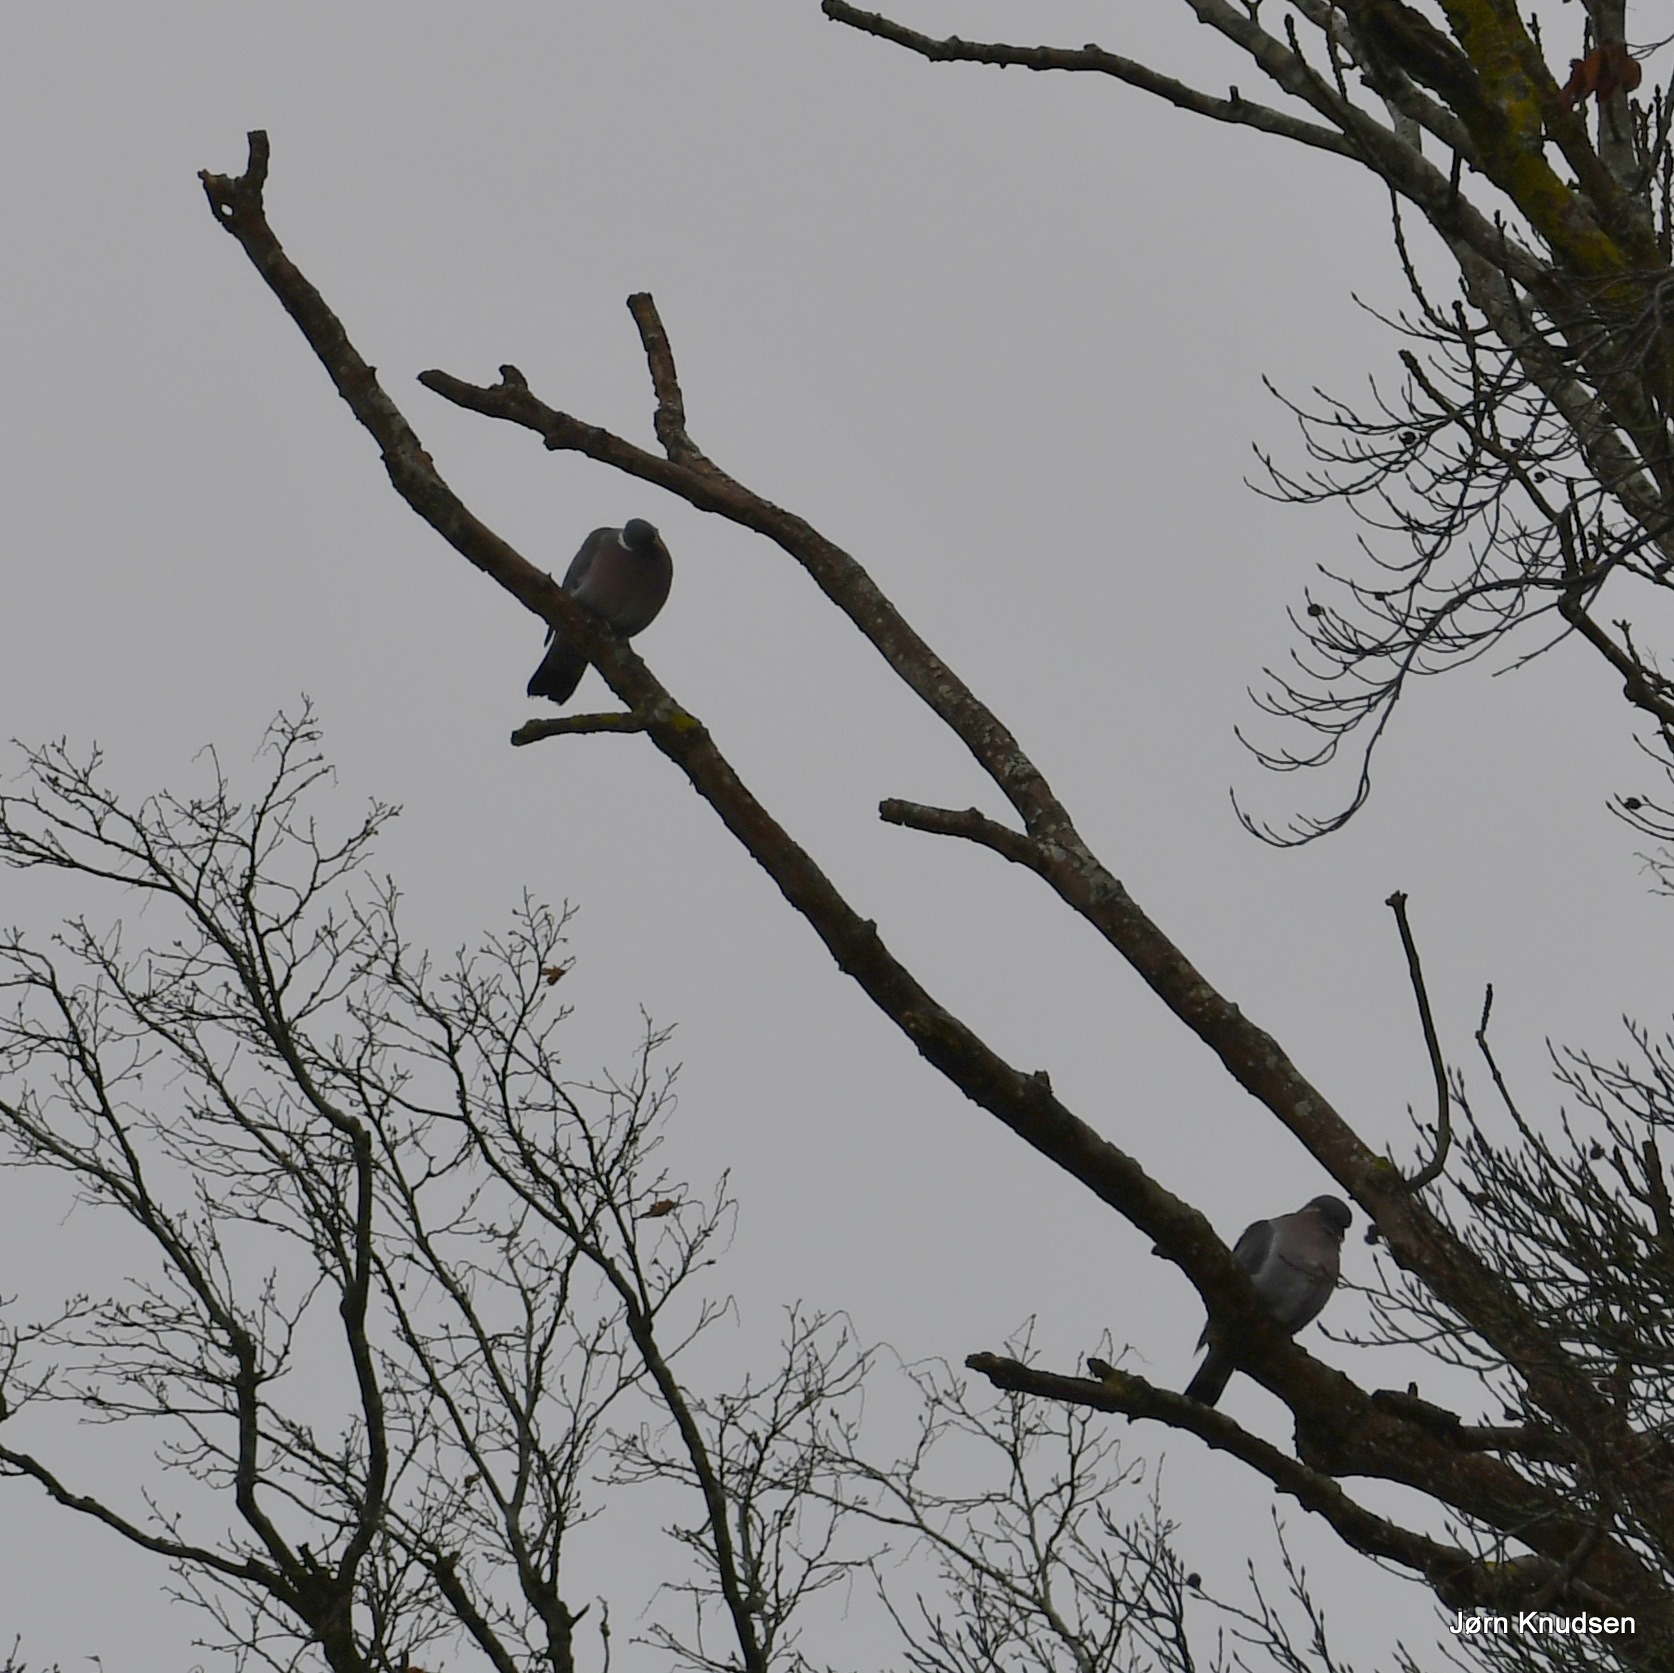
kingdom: Animalia
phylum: Chordata
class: Aves
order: Columbiformes
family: Columbidae
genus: Columba
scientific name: Columba palumbus
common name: Ringdue
